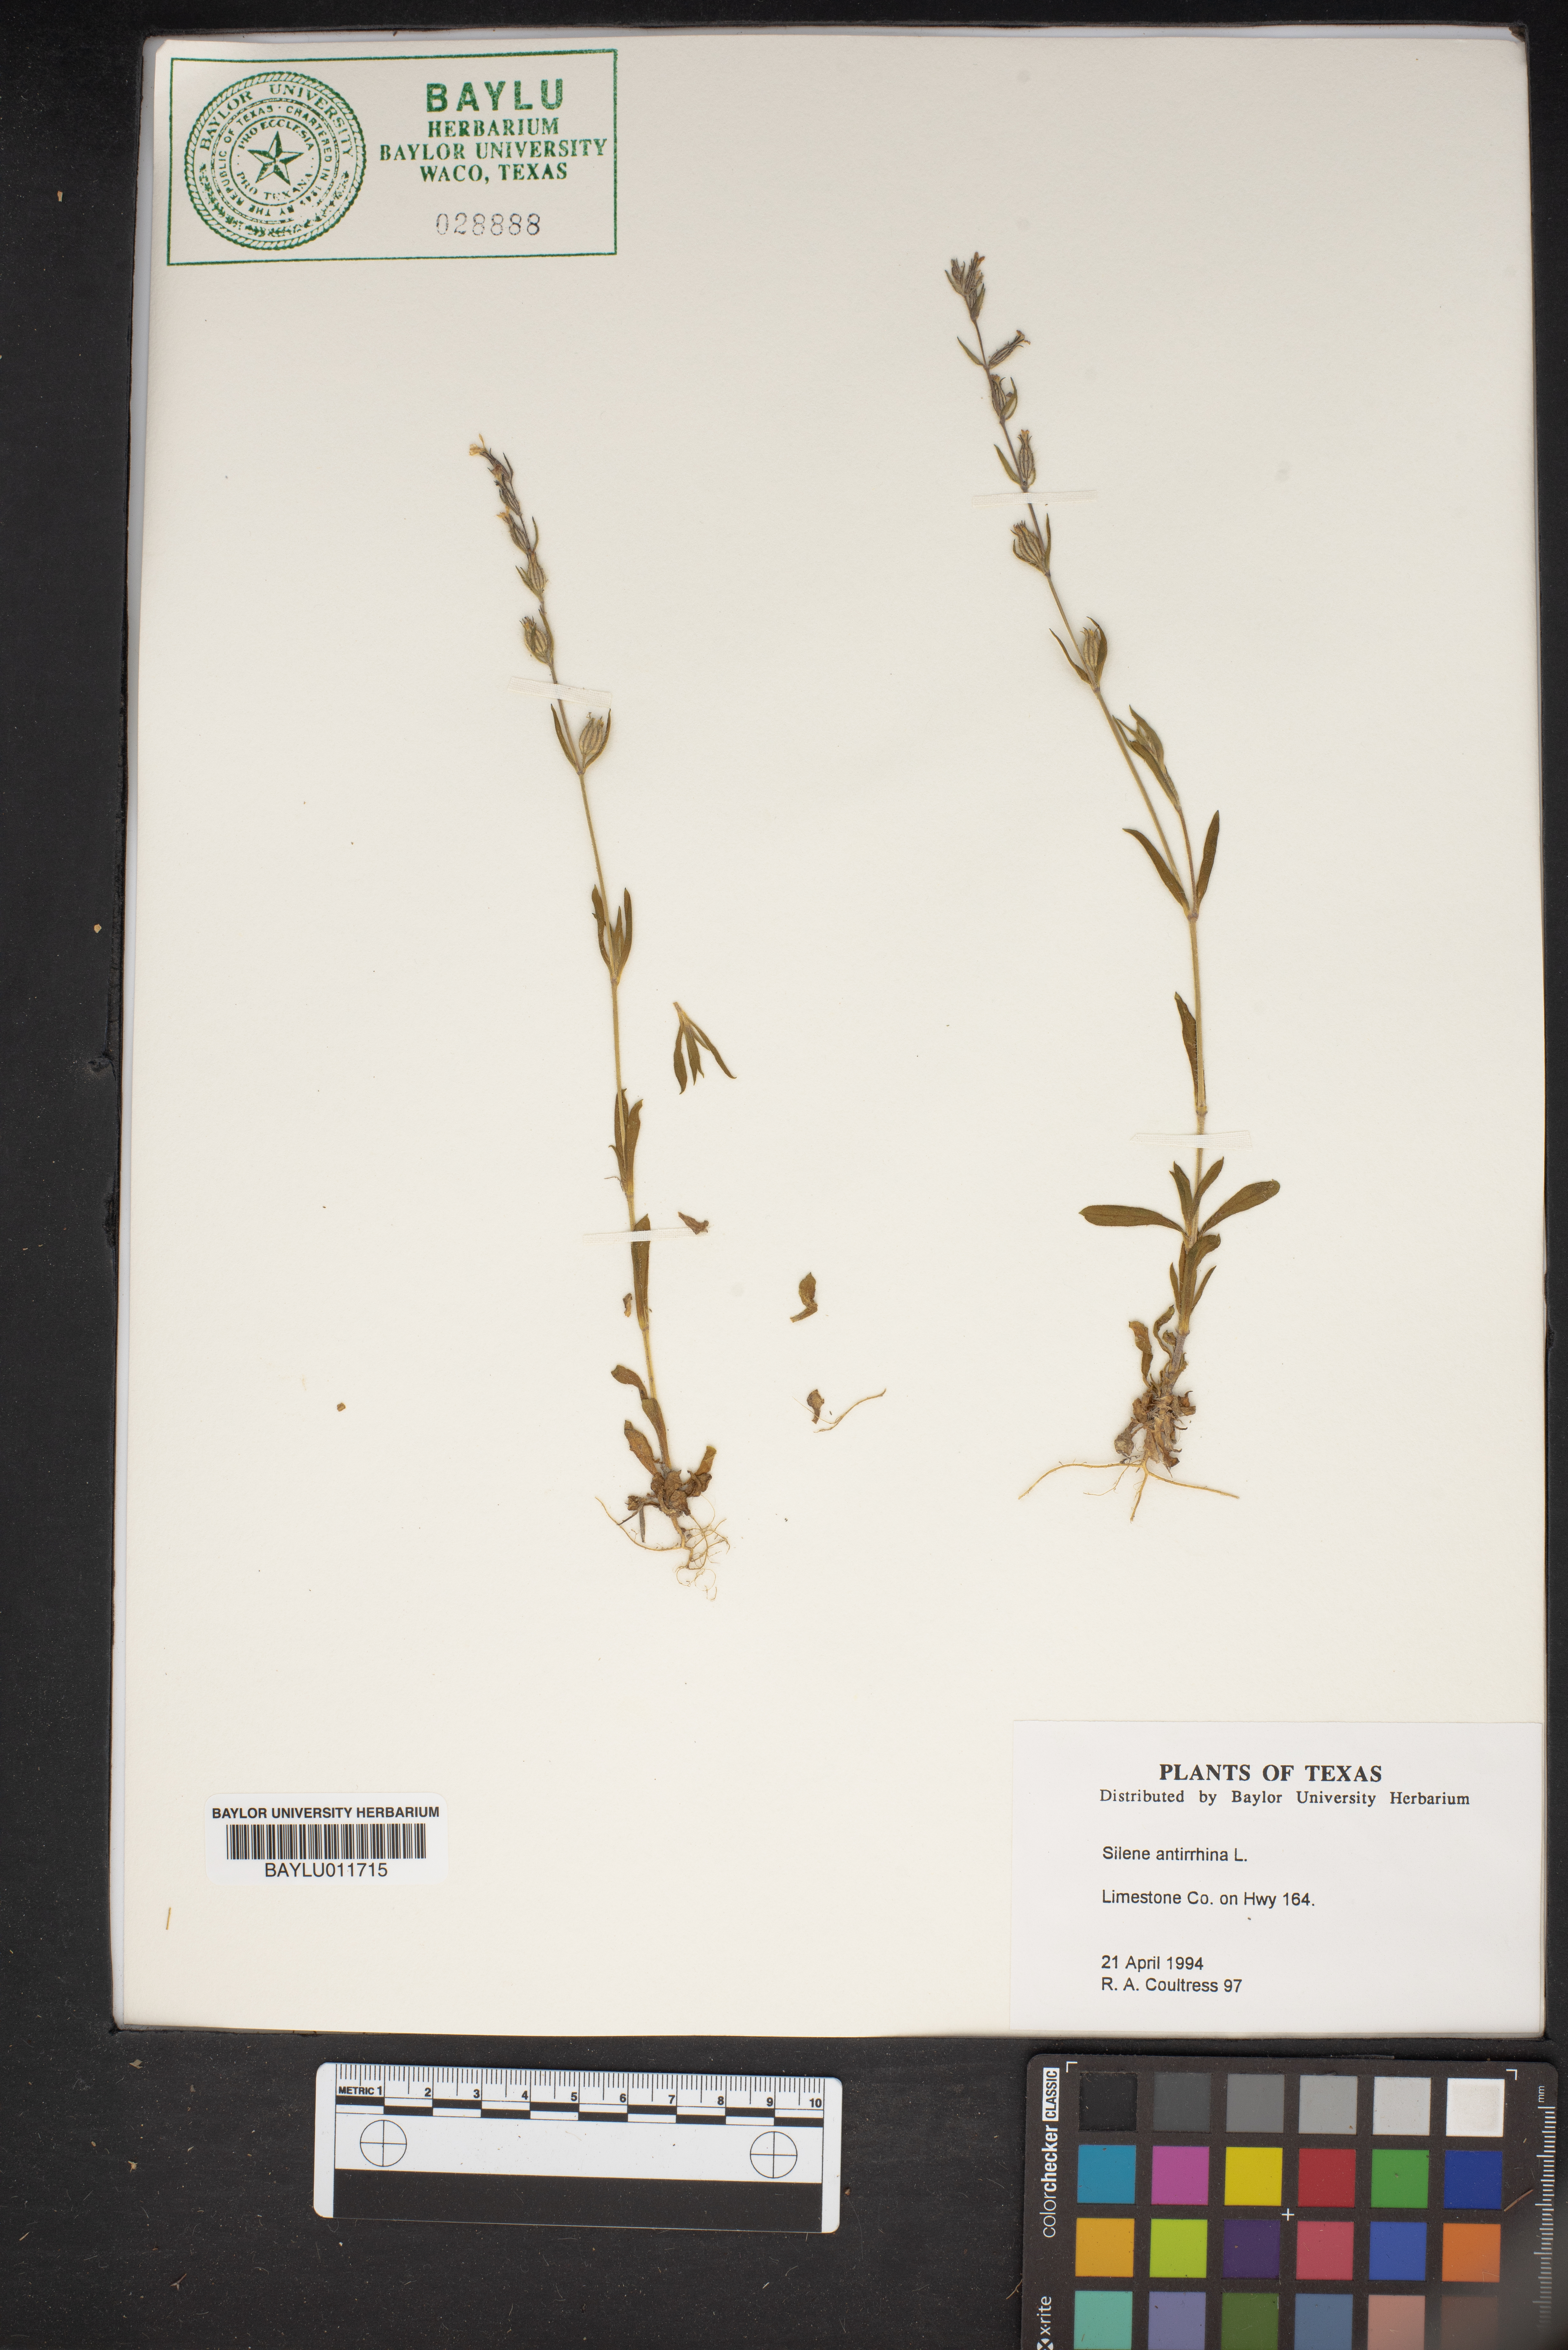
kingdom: Plantae
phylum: Tracheophyta
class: Magnoliopsida
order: Caryophyllales
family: Caryophyllaceae
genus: Silene
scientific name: Silene antirrhina
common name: Sleepy catchfly
